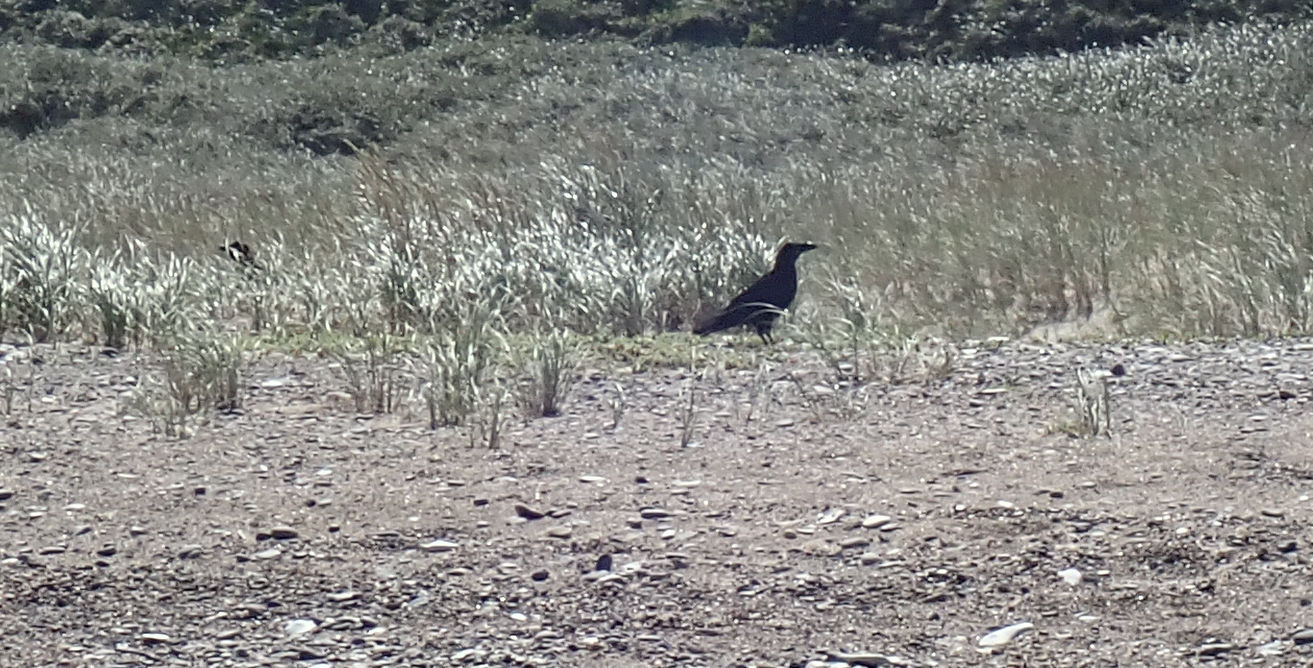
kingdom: Animalia
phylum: Chordata
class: Aves
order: Passeriformes
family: Corvidae
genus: Corvus
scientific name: Corvus corax
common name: Ravn
